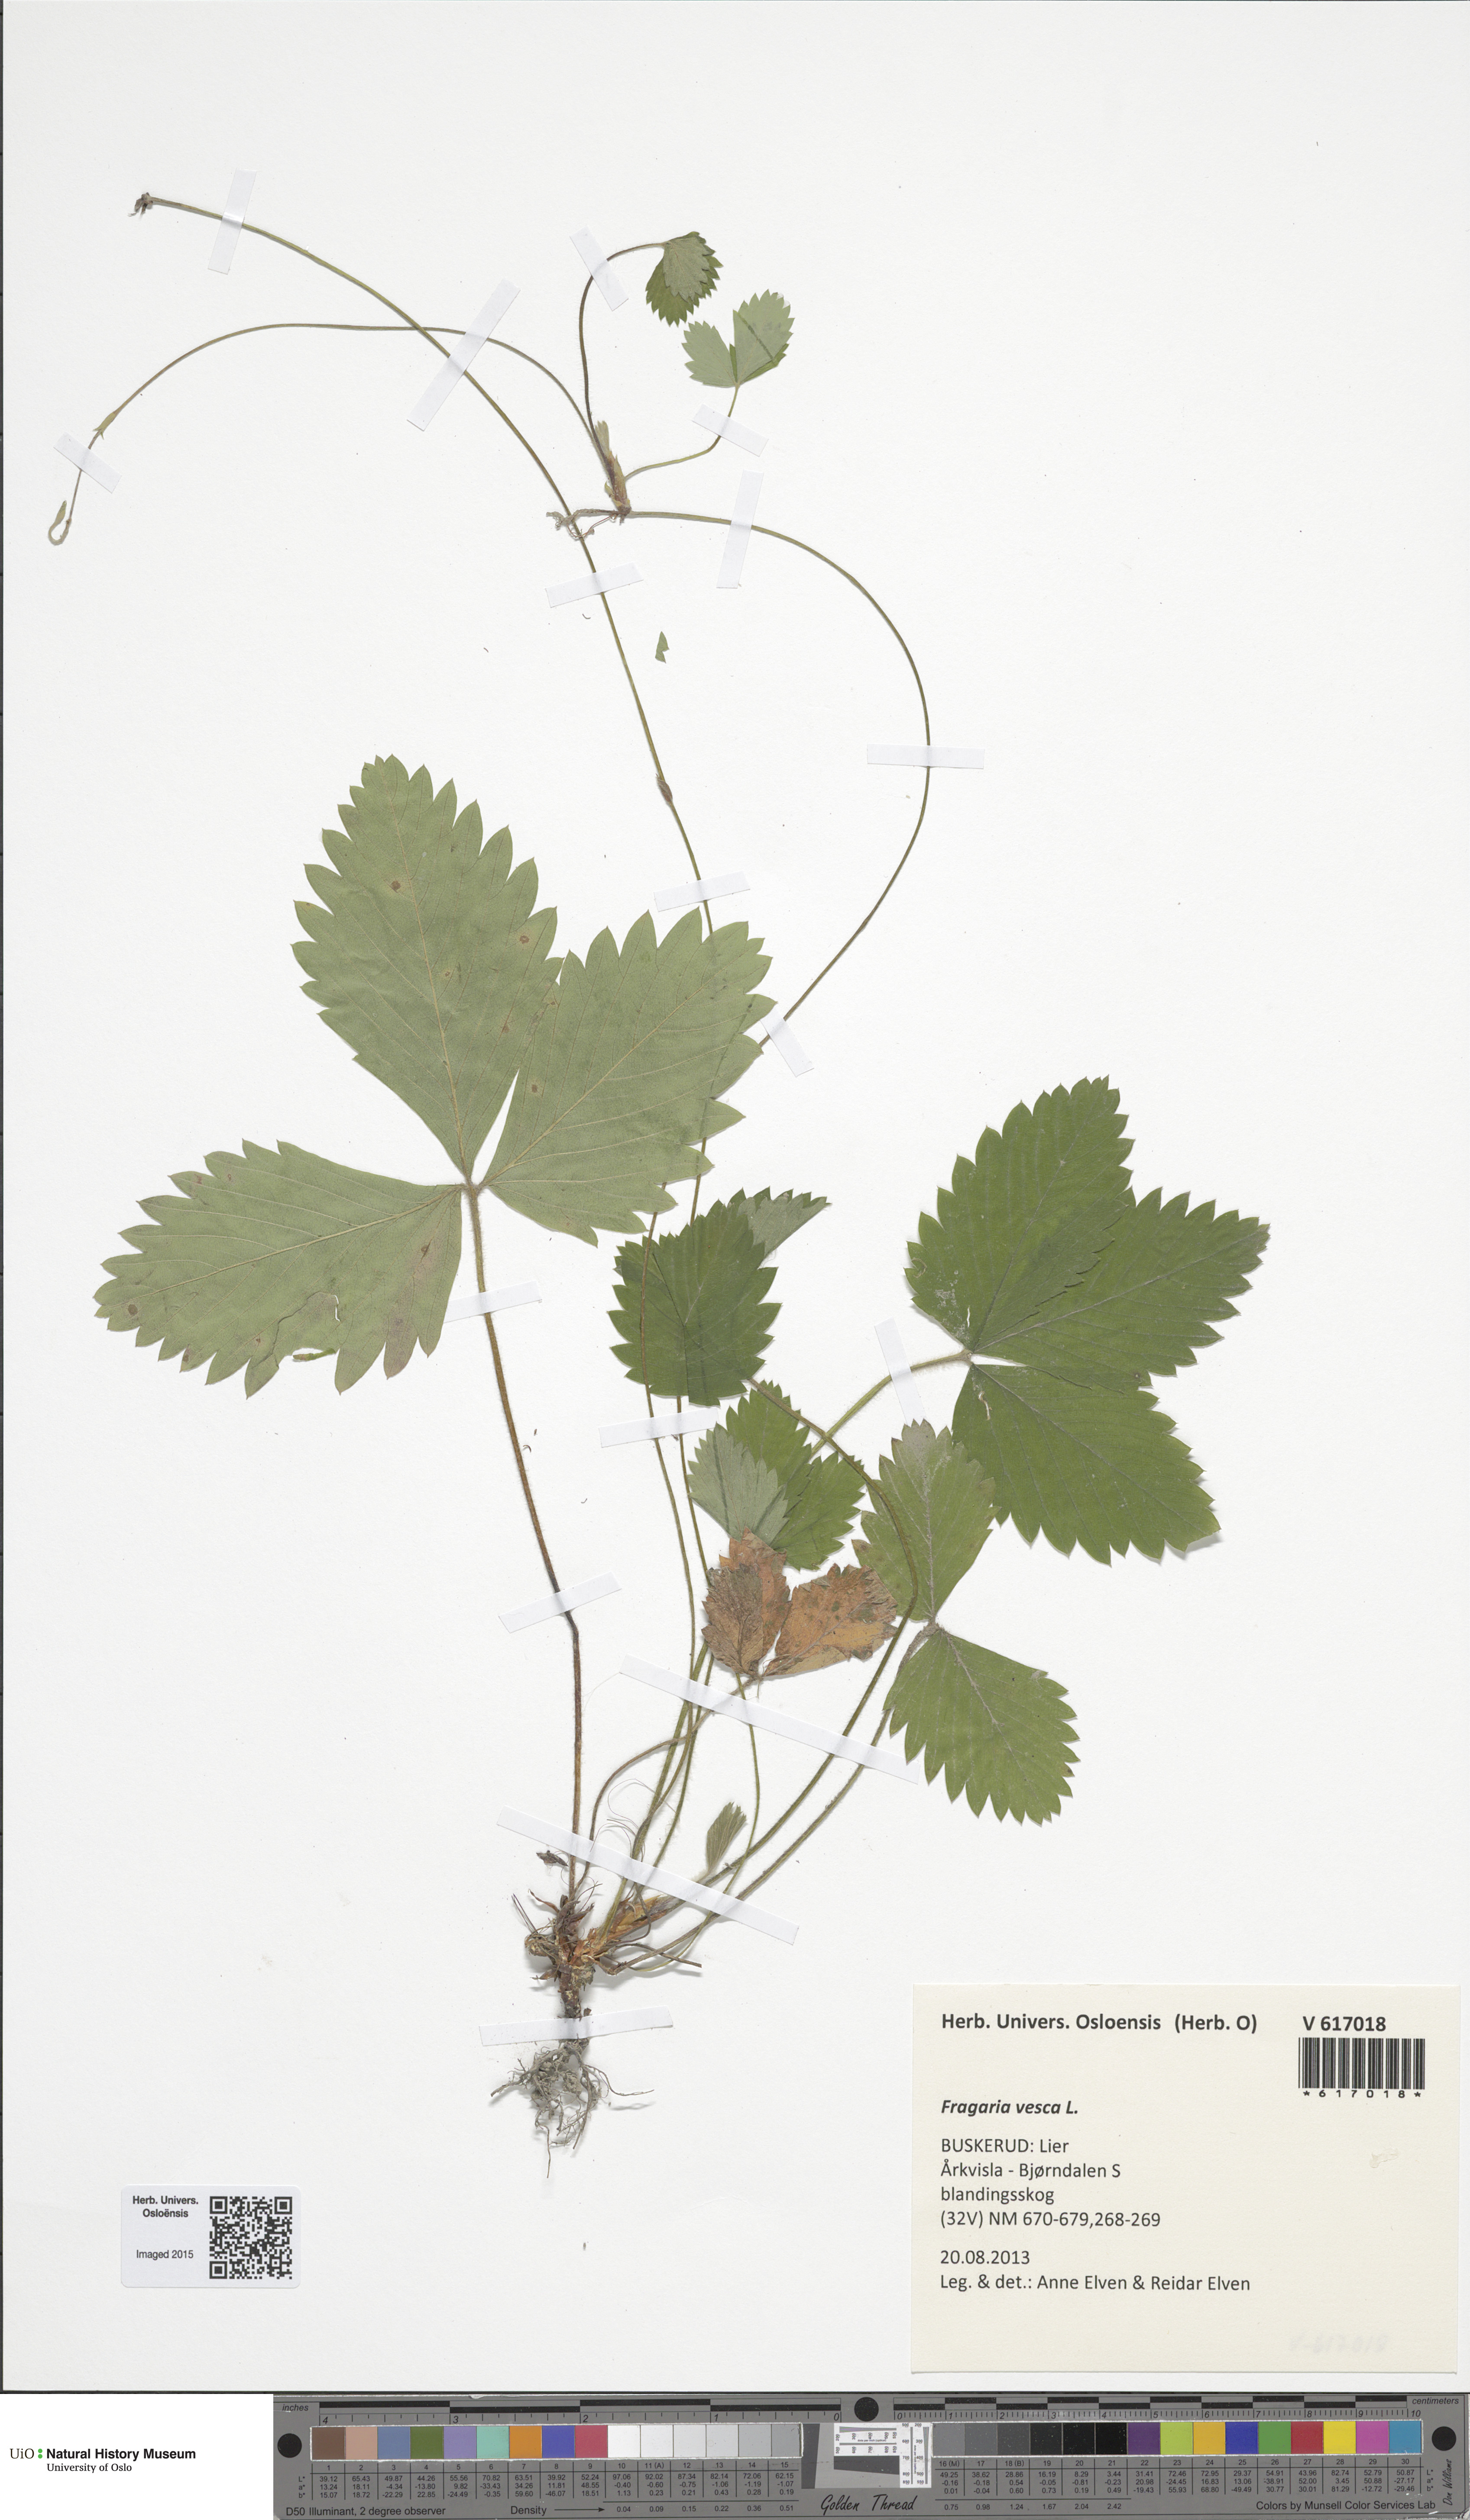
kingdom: Plantae
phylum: Tracheophyta
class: Magnoliopsida
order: Rosales
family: Rosaceae
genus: Fragaria
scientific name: Fragaria vesca
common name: Wild strawberry
